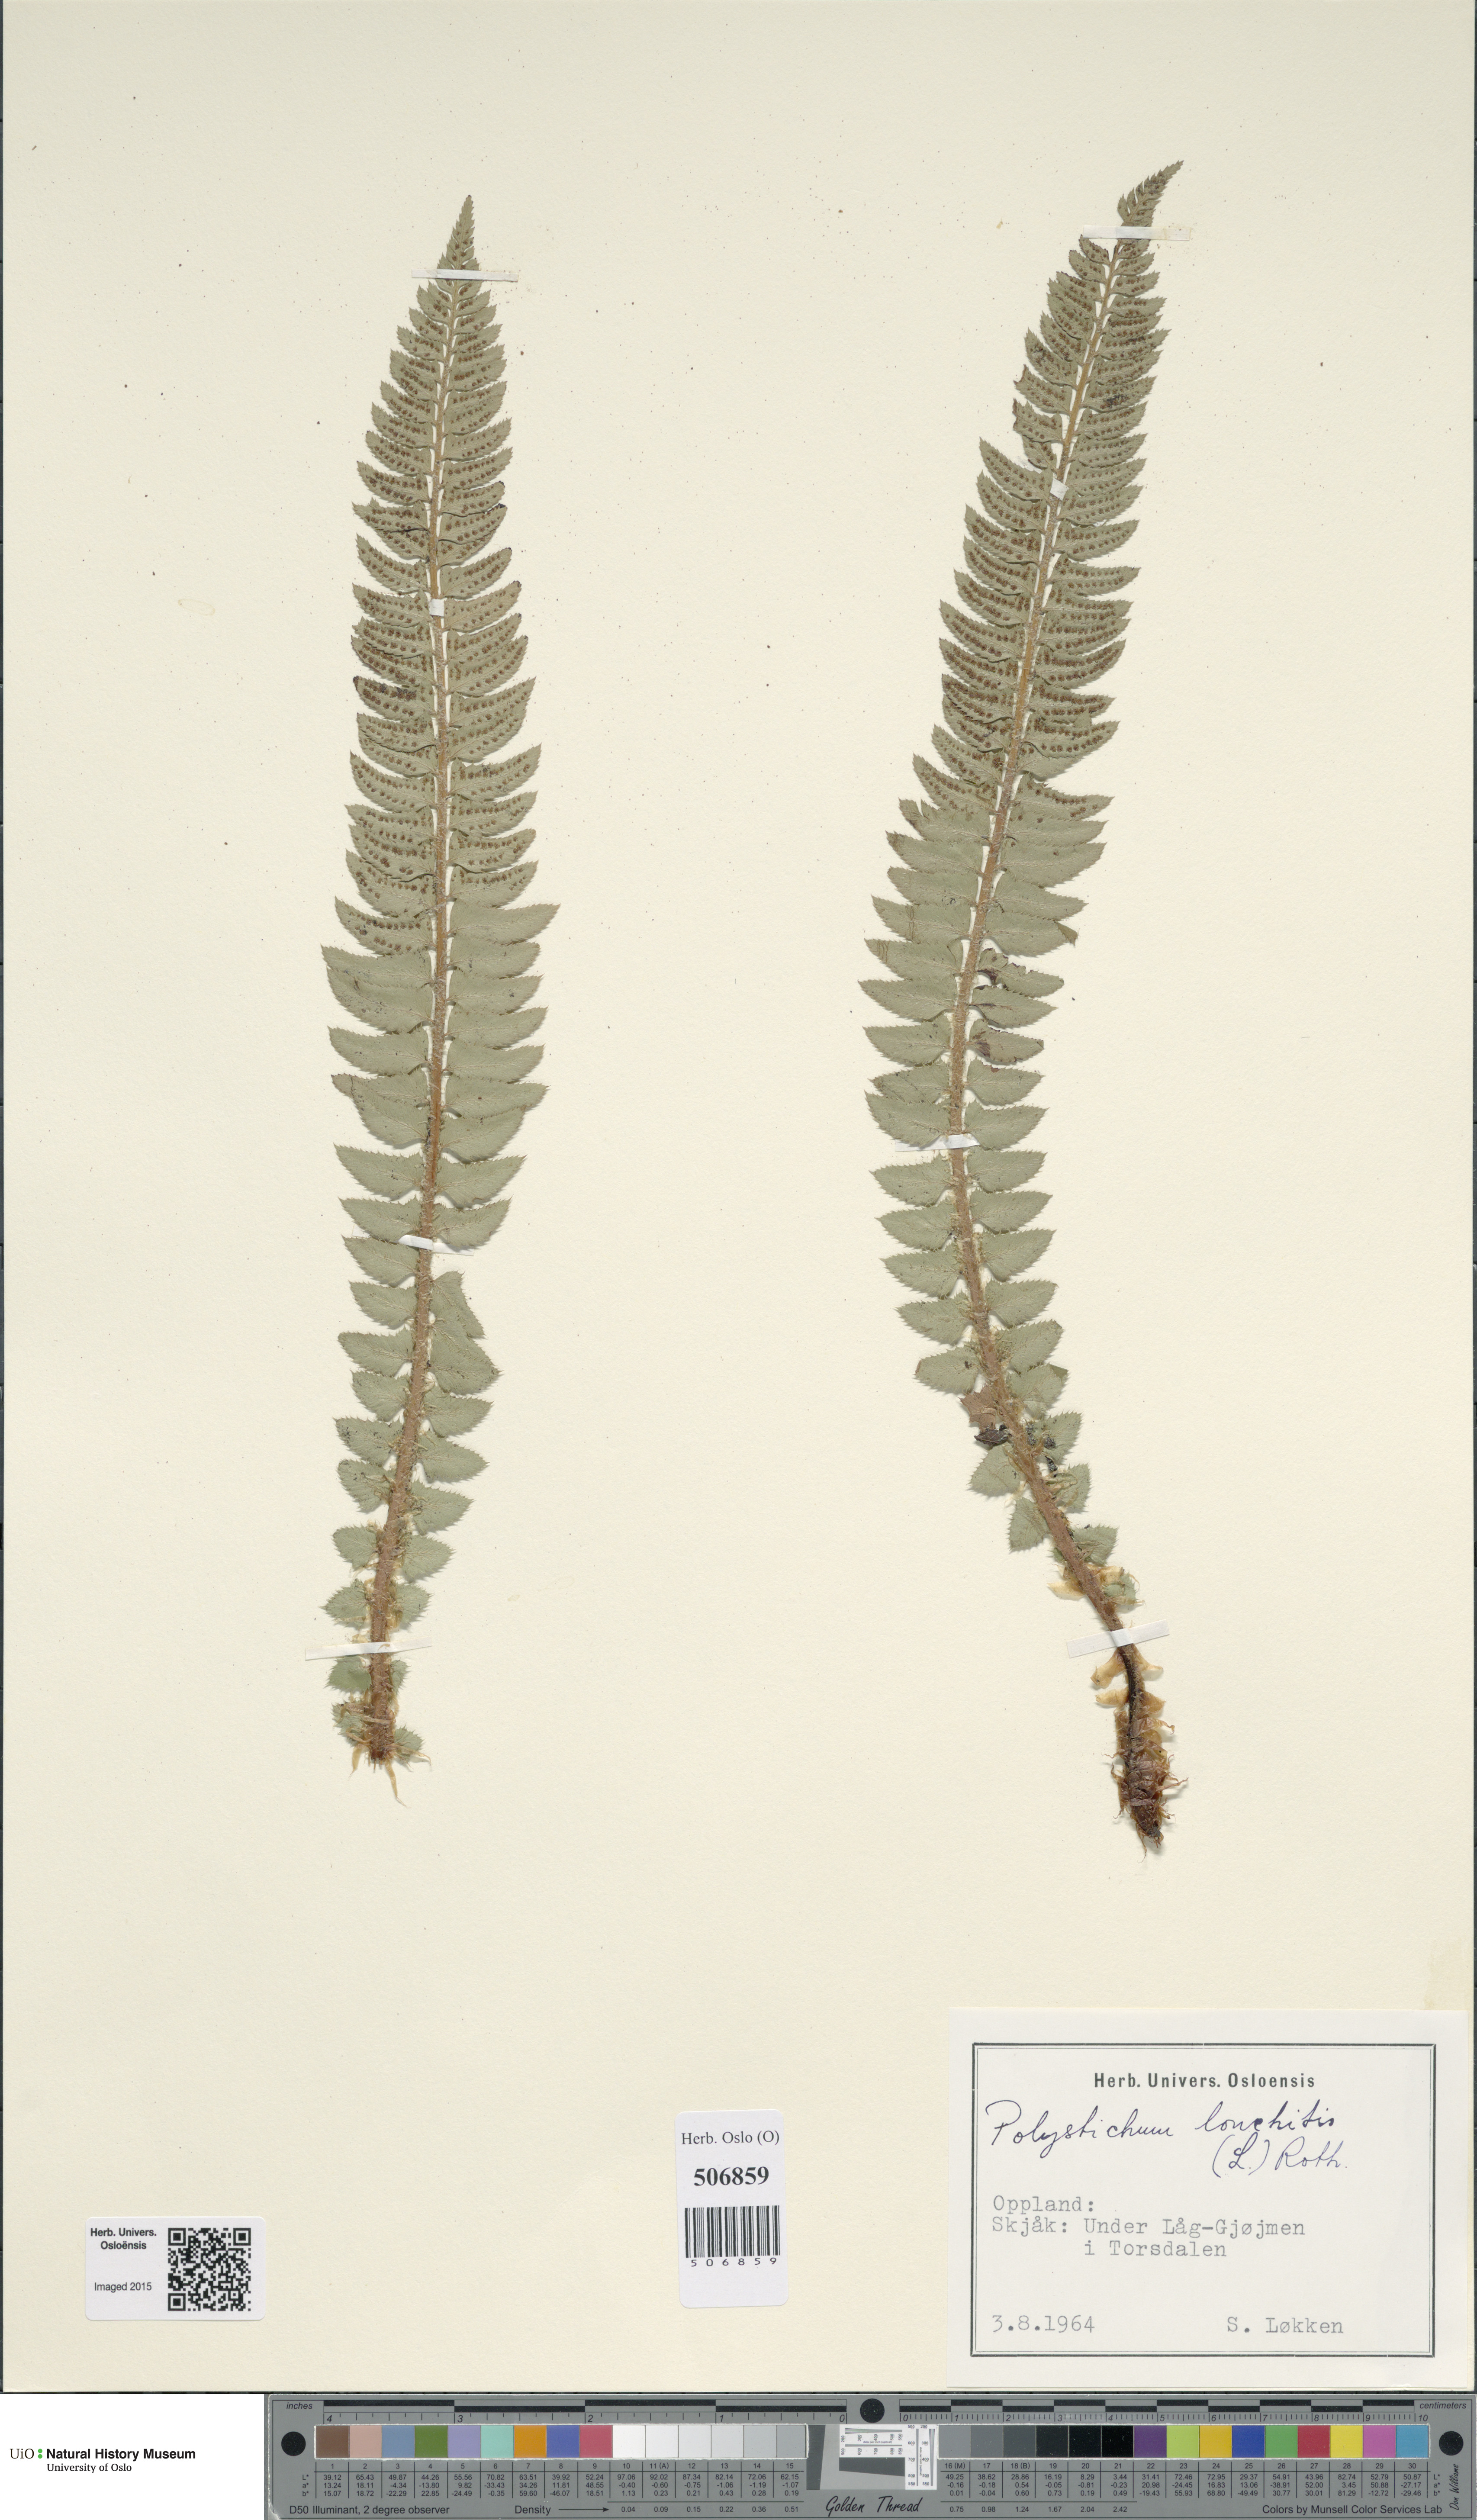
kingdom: Plantae
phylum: Tracheophyta
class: Polypodiopsida
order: Polypodiales
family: Dryopteridaceae
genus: Polystichum
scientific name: Polystichum lonchitis
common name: Holly fern
